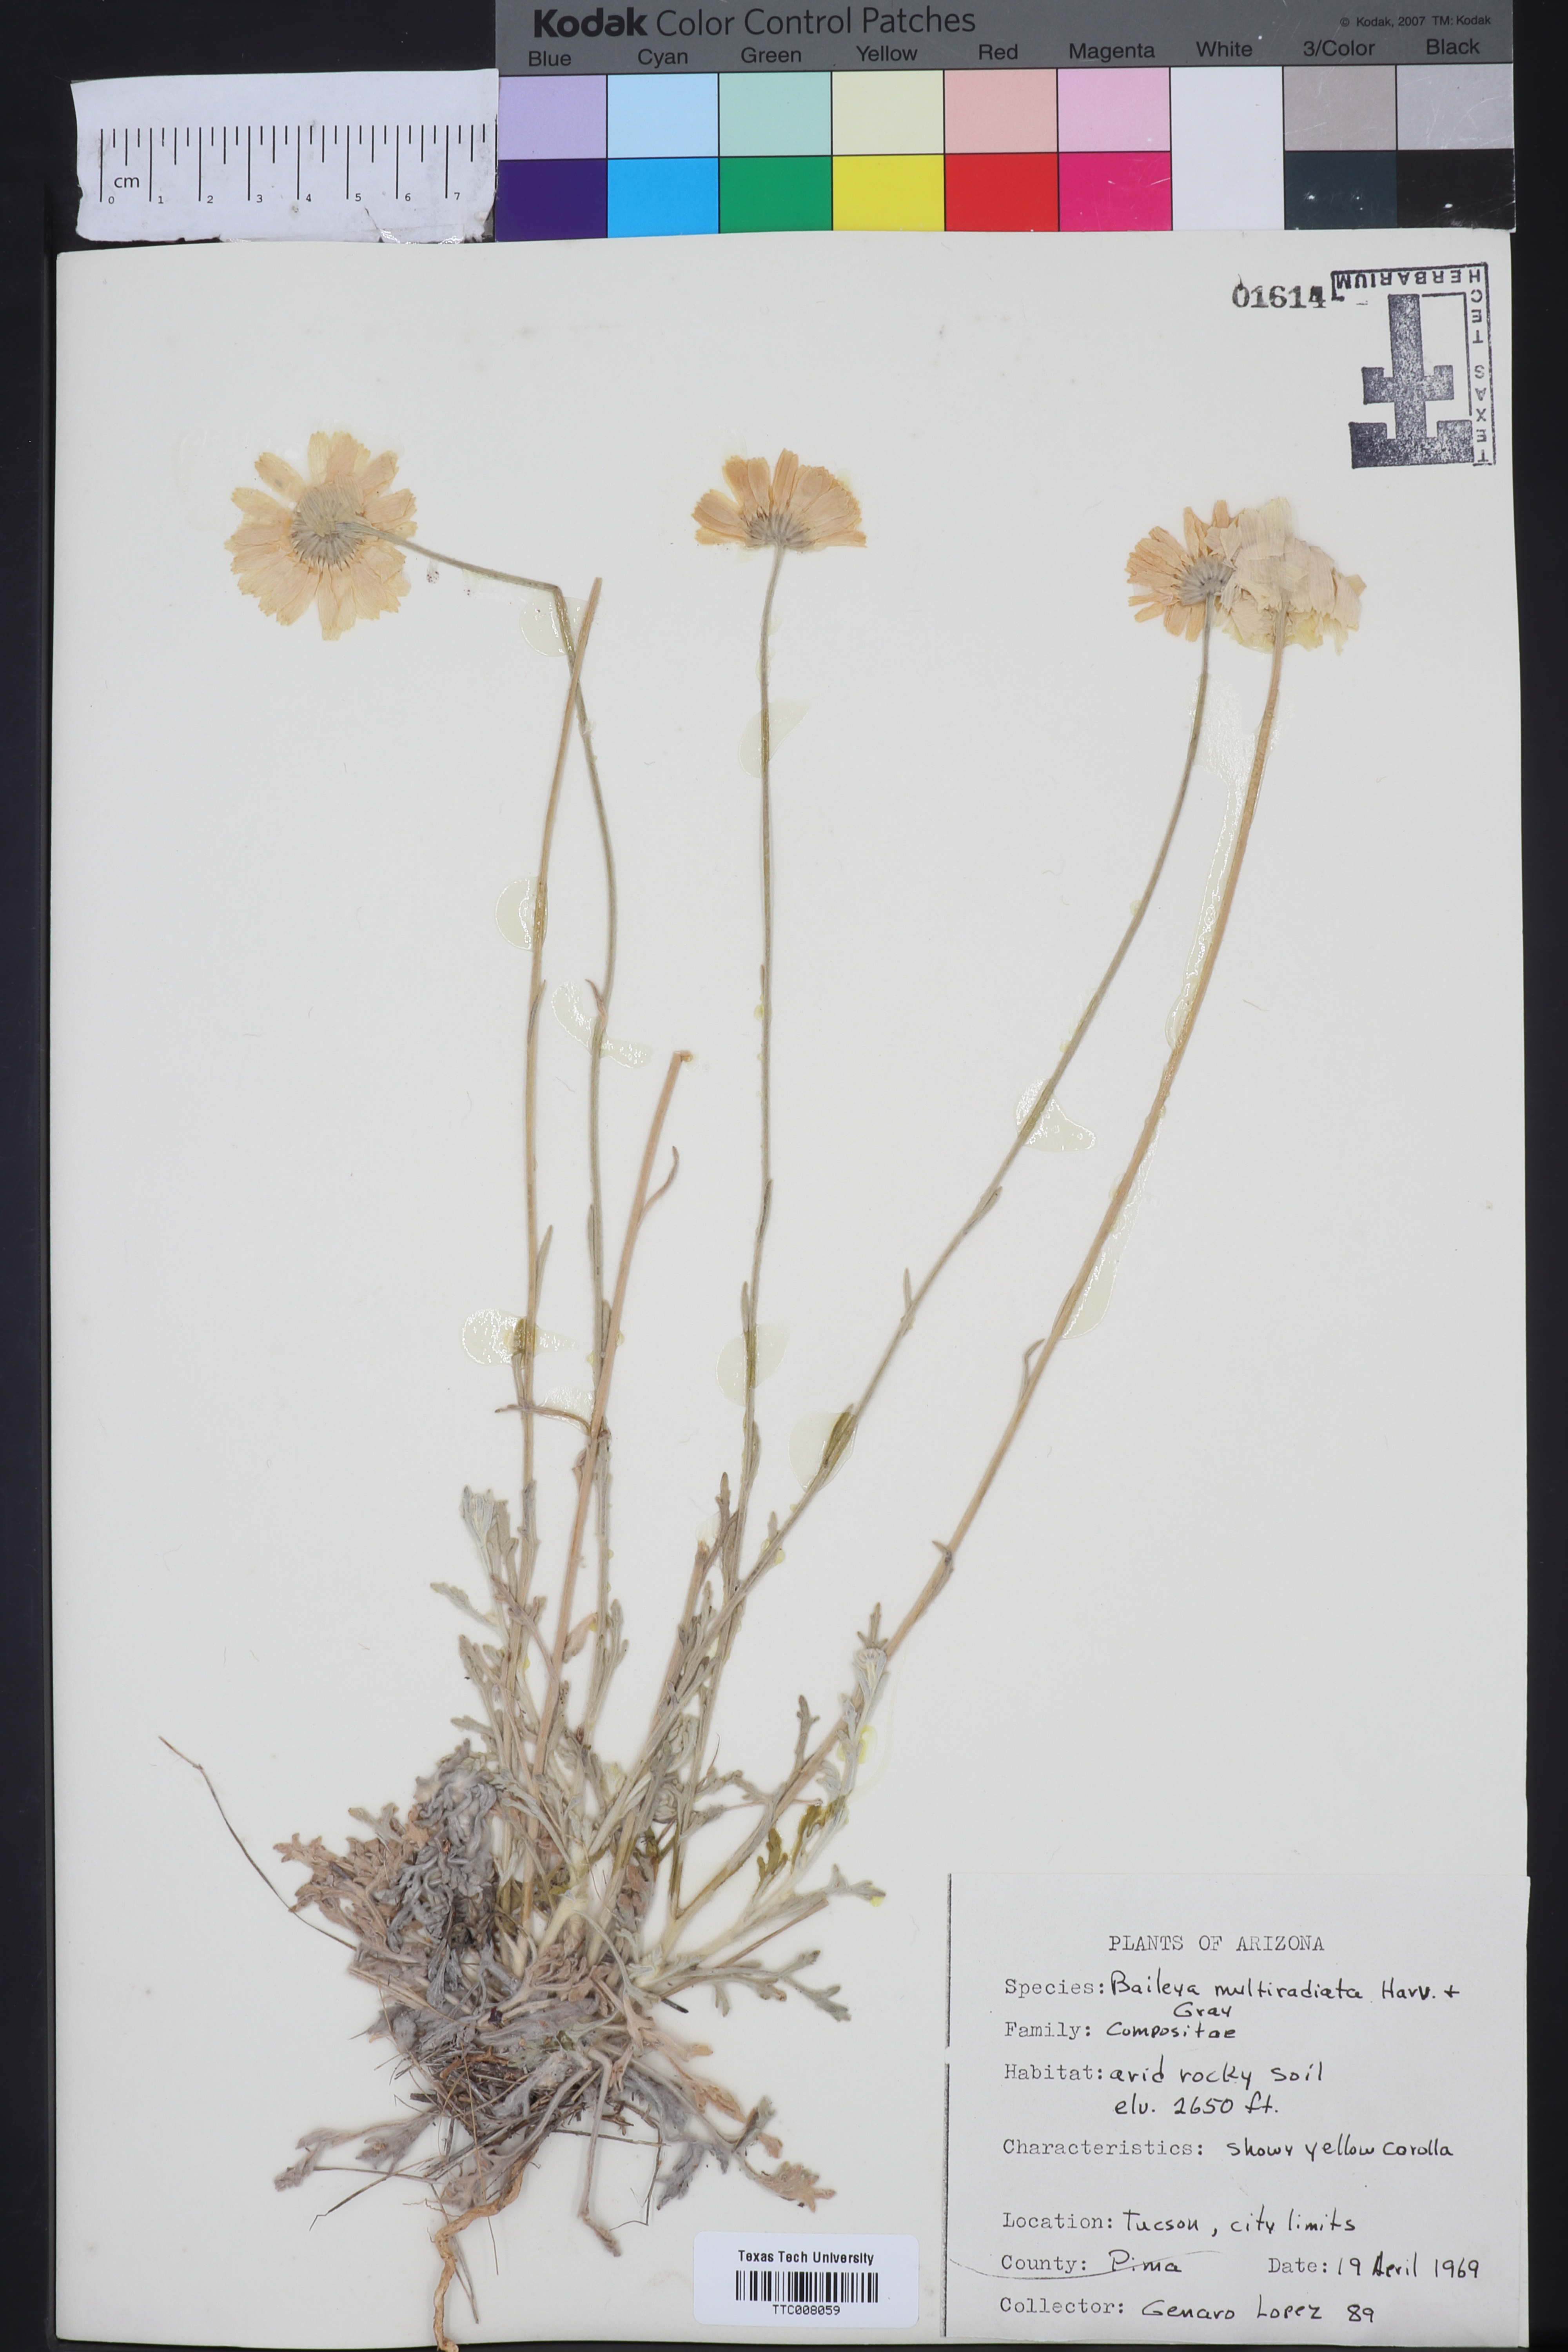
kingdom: Plantae
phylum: Tracheophyta
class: Magnoliopsida
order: Asterales
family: Asteraceae
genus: Baileya
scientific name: Baileya multiradiata
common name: Desert-marigold
